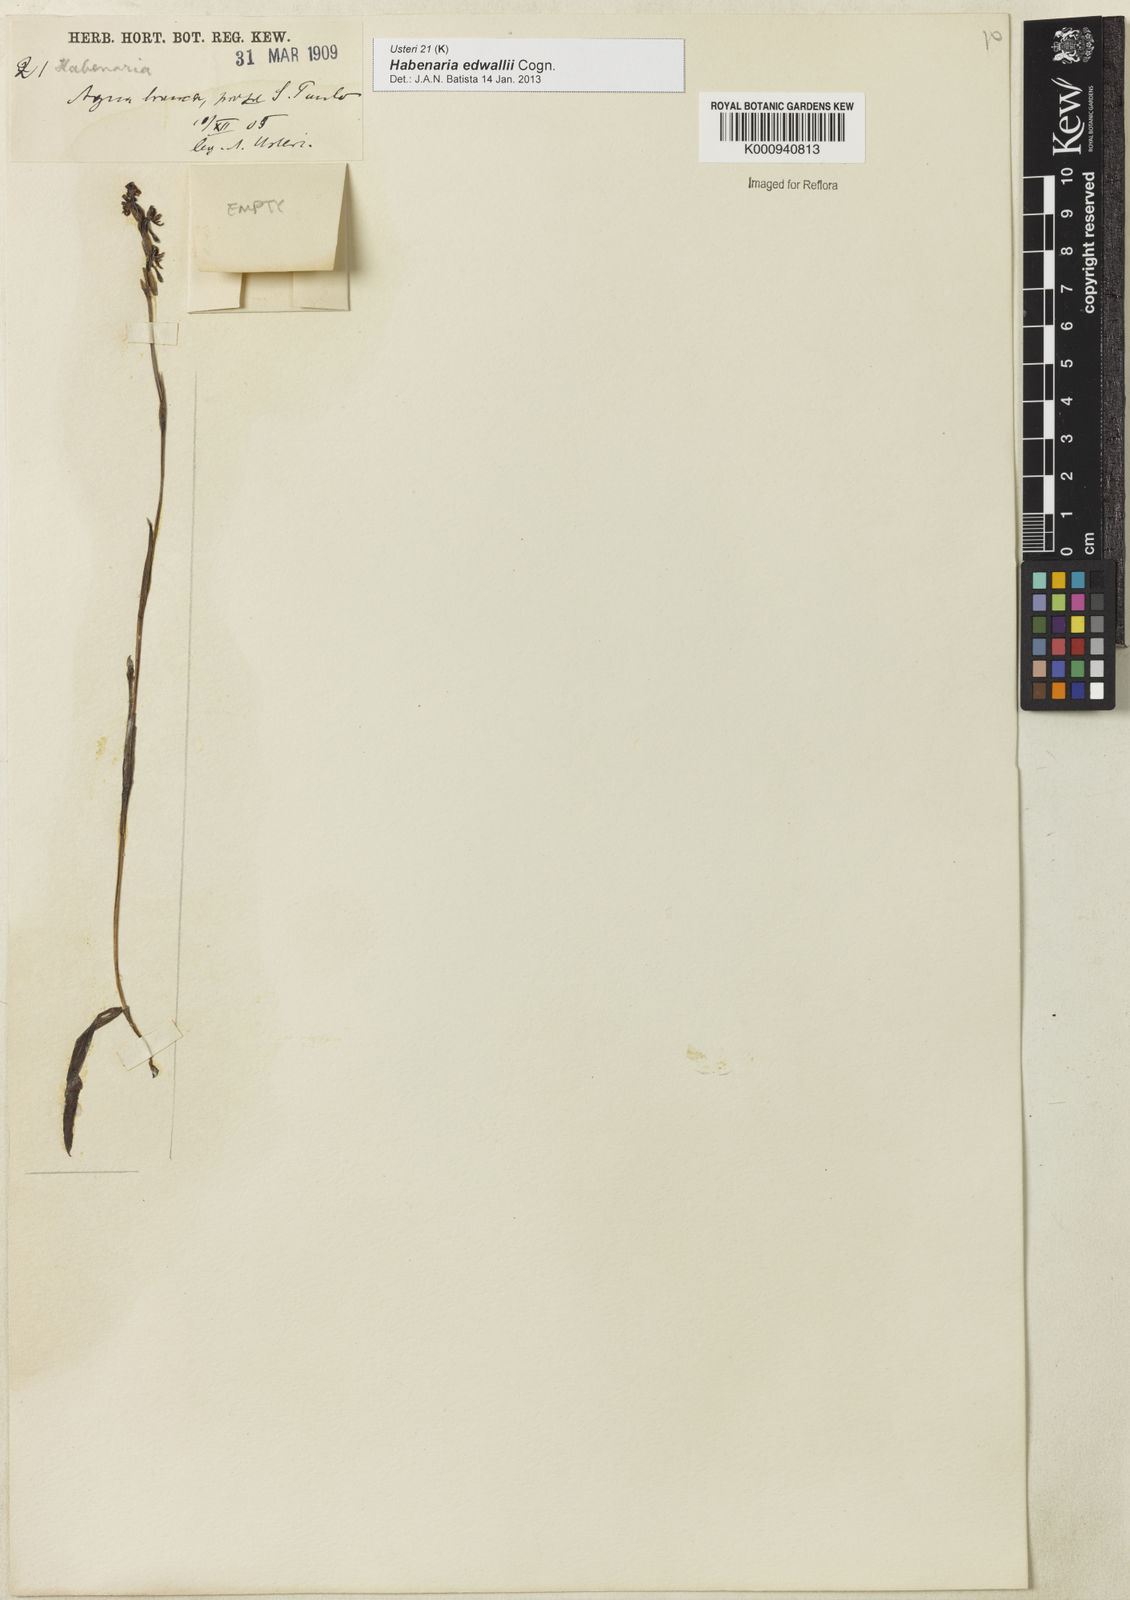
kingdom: Plantae
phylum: Tracheophyta
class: Liliopsida
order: Asparagales
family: Orchidaceae
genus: Habenaria
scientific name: Habenaria edwallii
